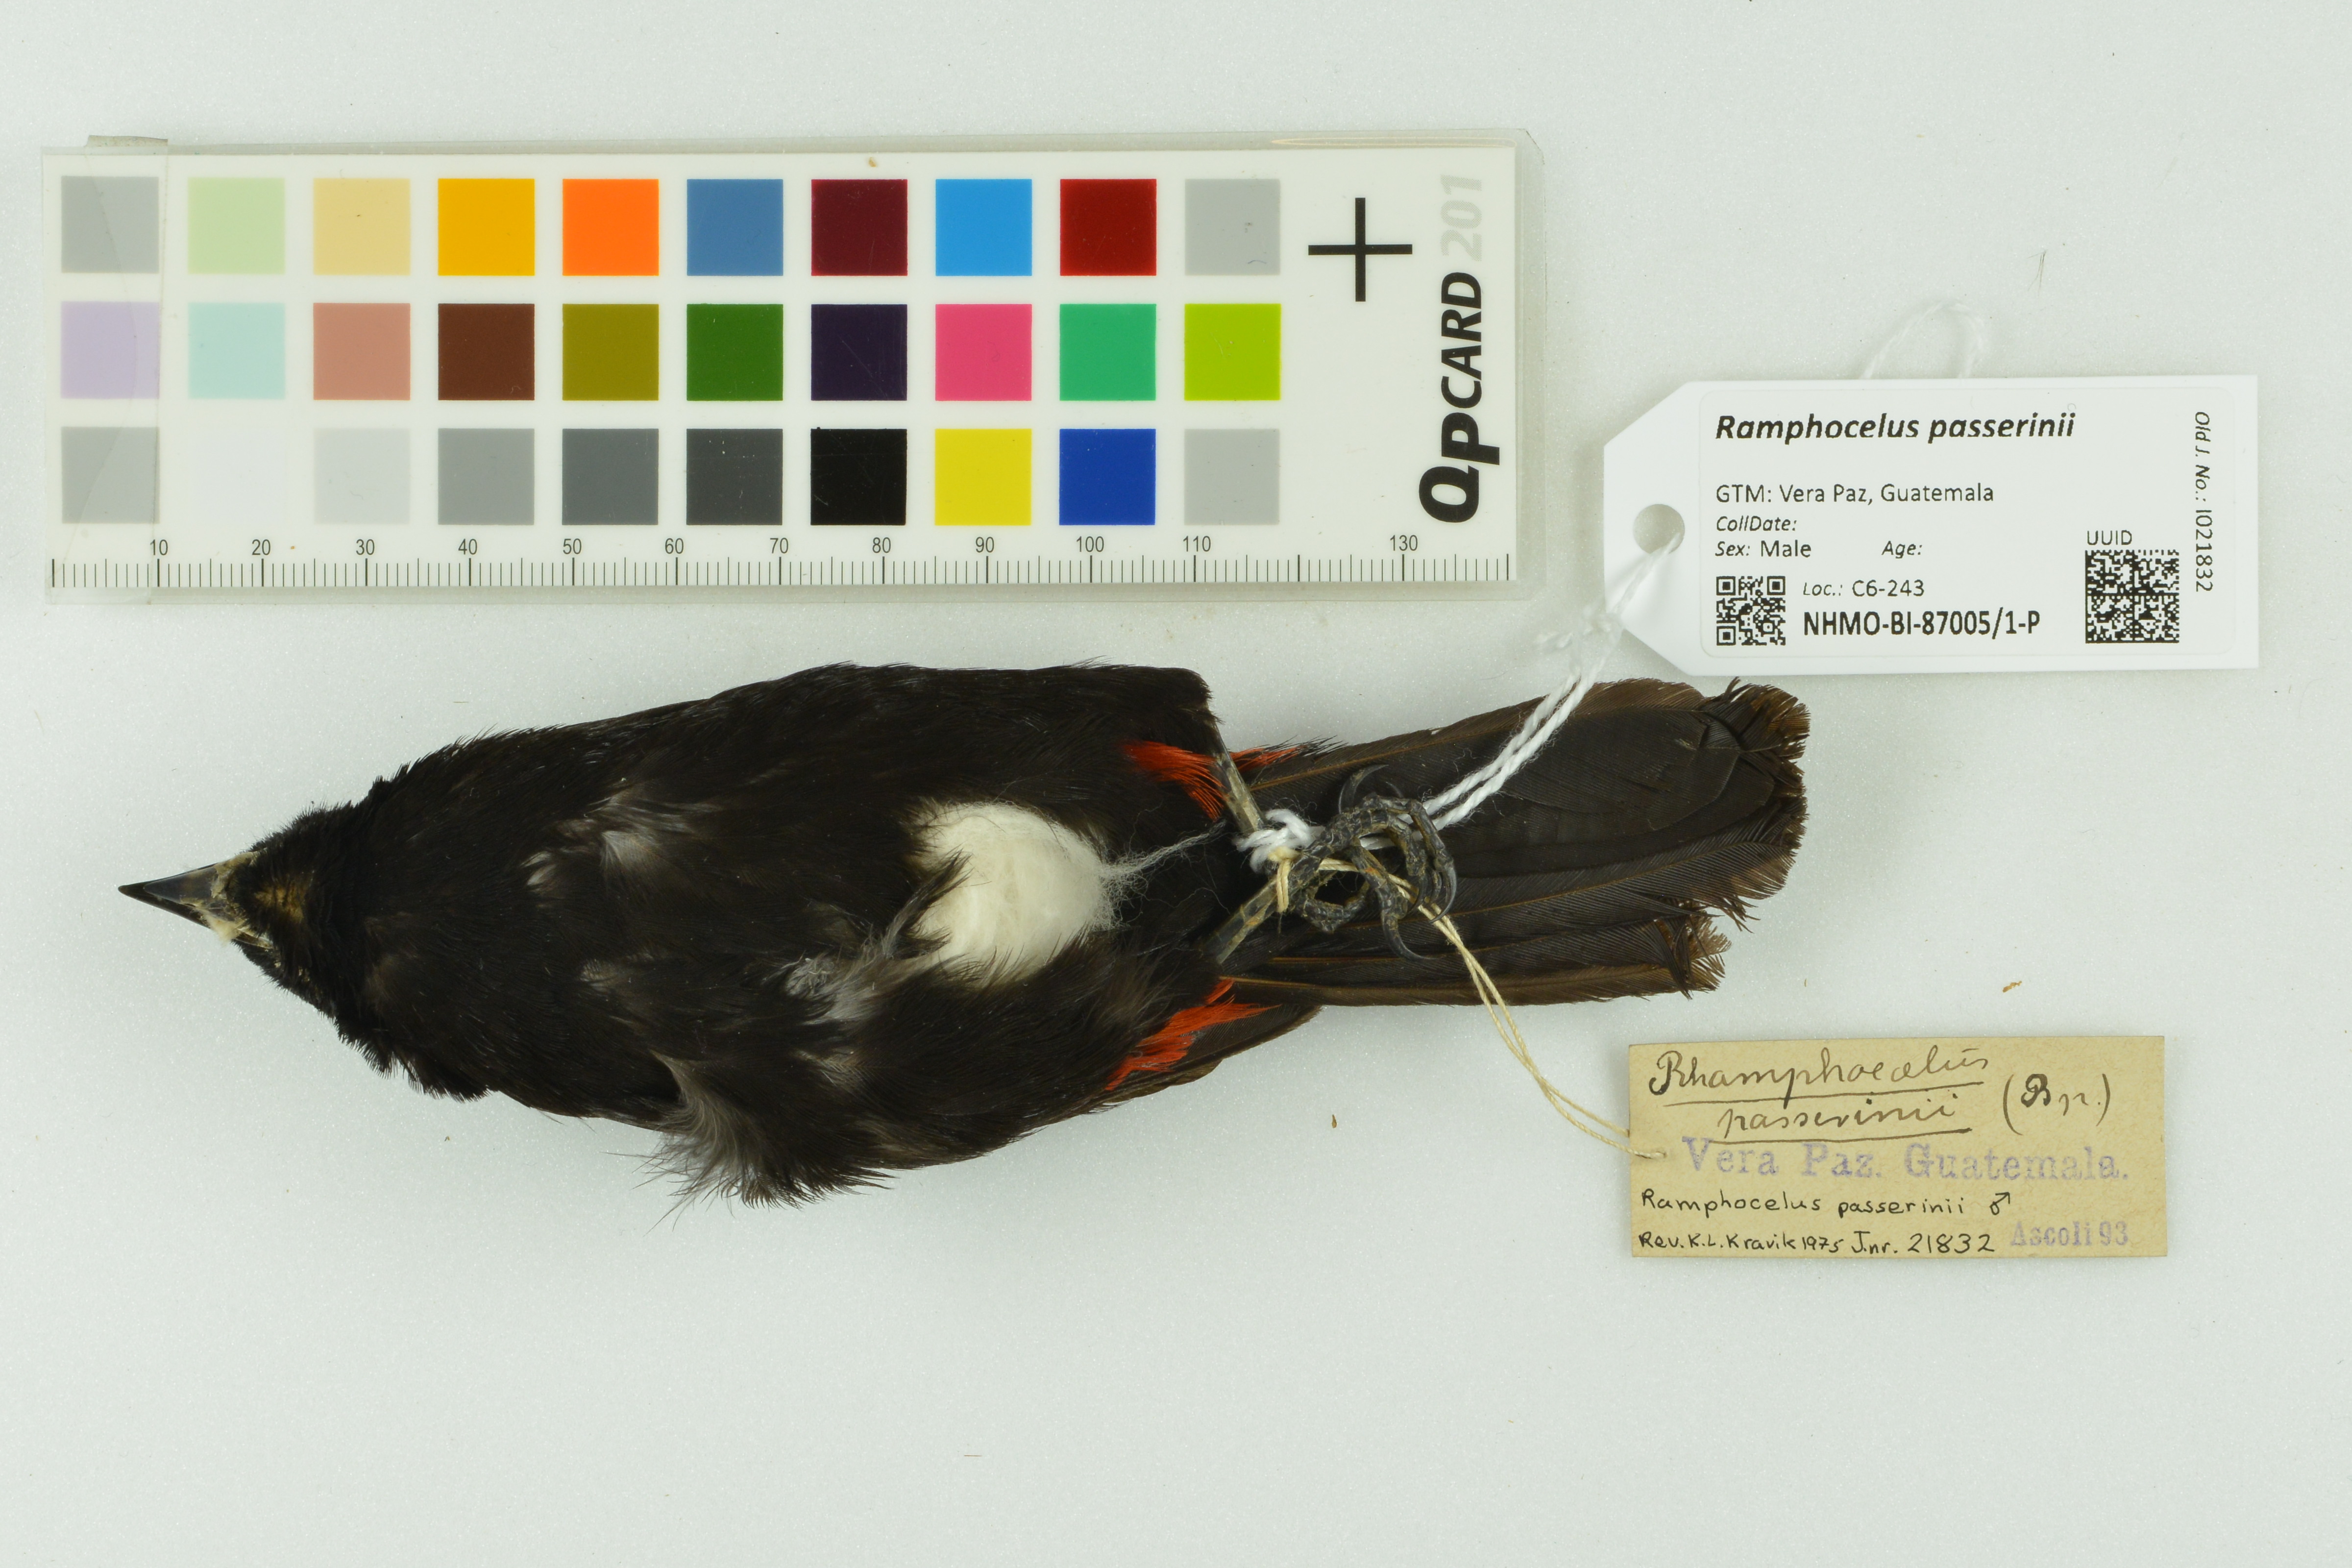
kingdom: Animalia
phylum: Chordata
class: Aves
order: Passeriformes
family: Thraupidae
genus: Ramphocelus
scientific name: Ramphocelus passerinii
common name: Passerini's tanager
